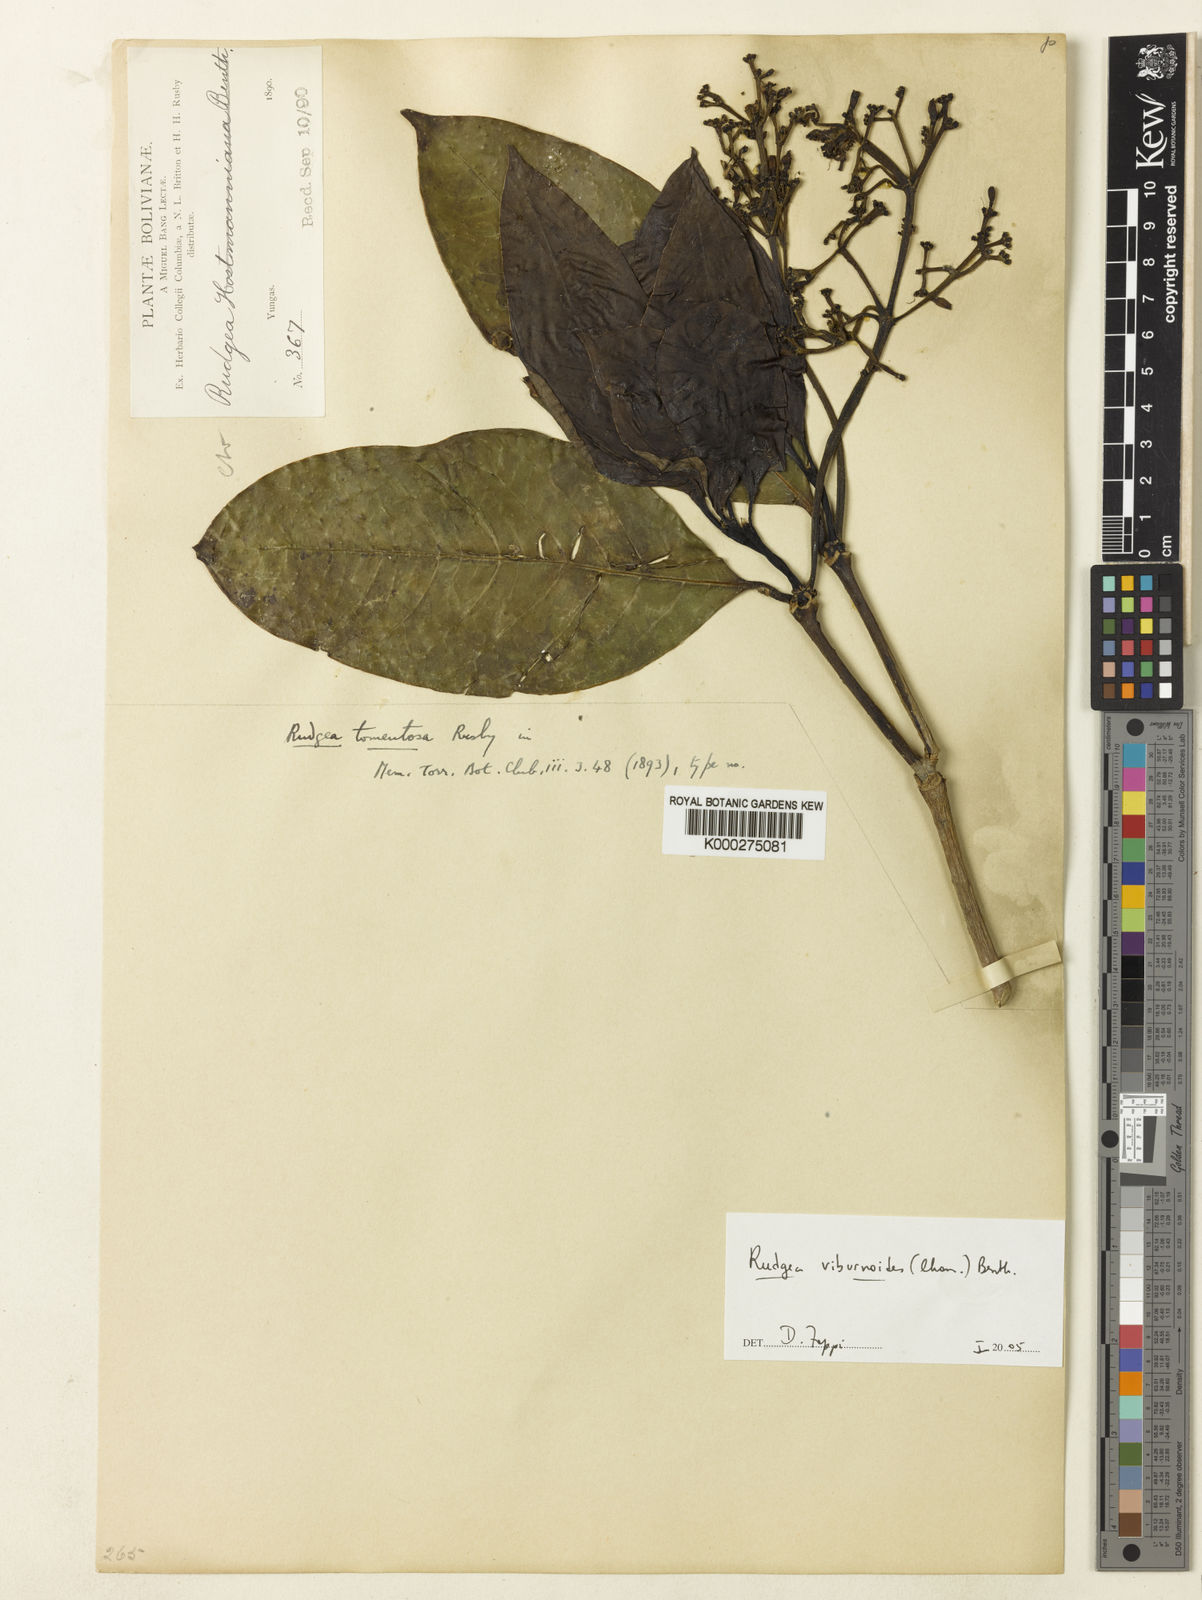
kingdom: Plantae
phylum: Tracheophyta
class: Magnoliopsida
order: Gentianales
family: Rubiaceae
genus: Rudgea
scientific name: Rudgea viburnoides
